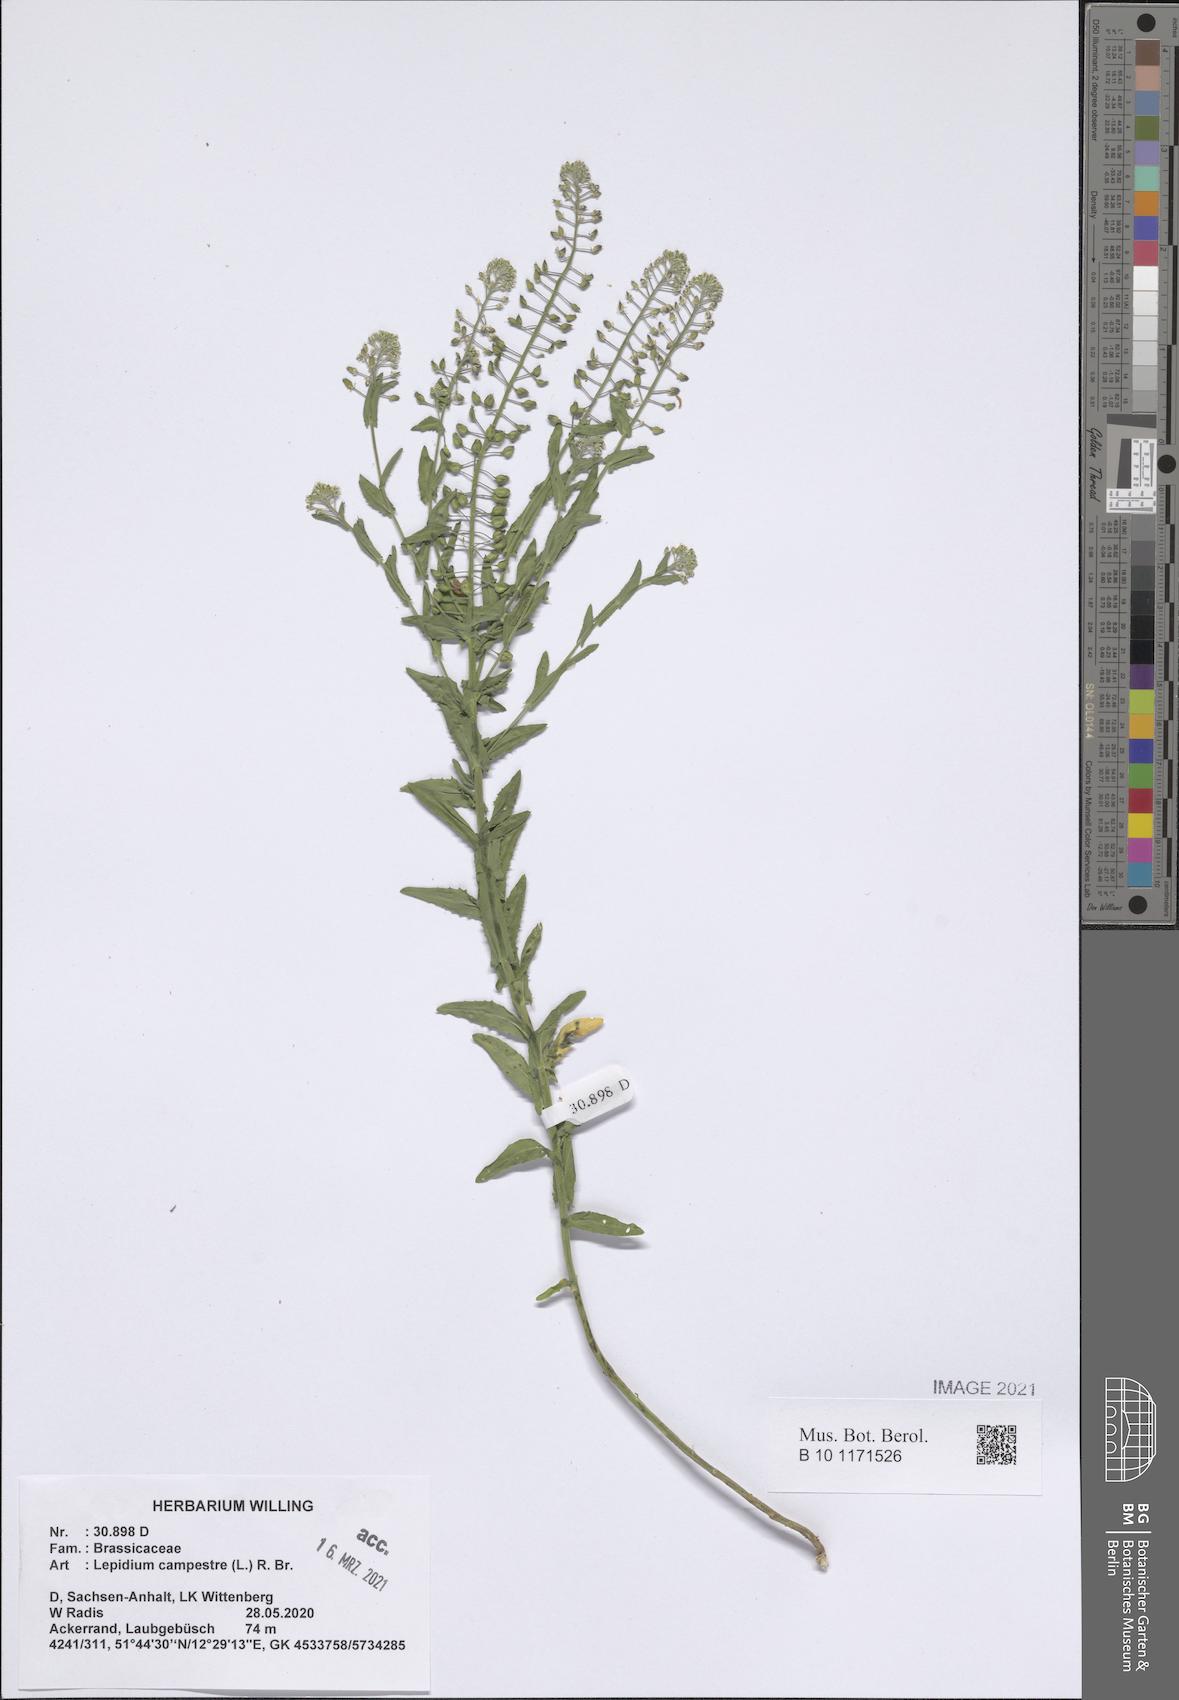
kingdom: Plantae
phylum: Tracheophyta
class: Magnoliopsida
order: Brassicales
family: Brassicaceae
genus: Lepidium
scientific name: Lepidium campestre
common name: Field pepperwort
